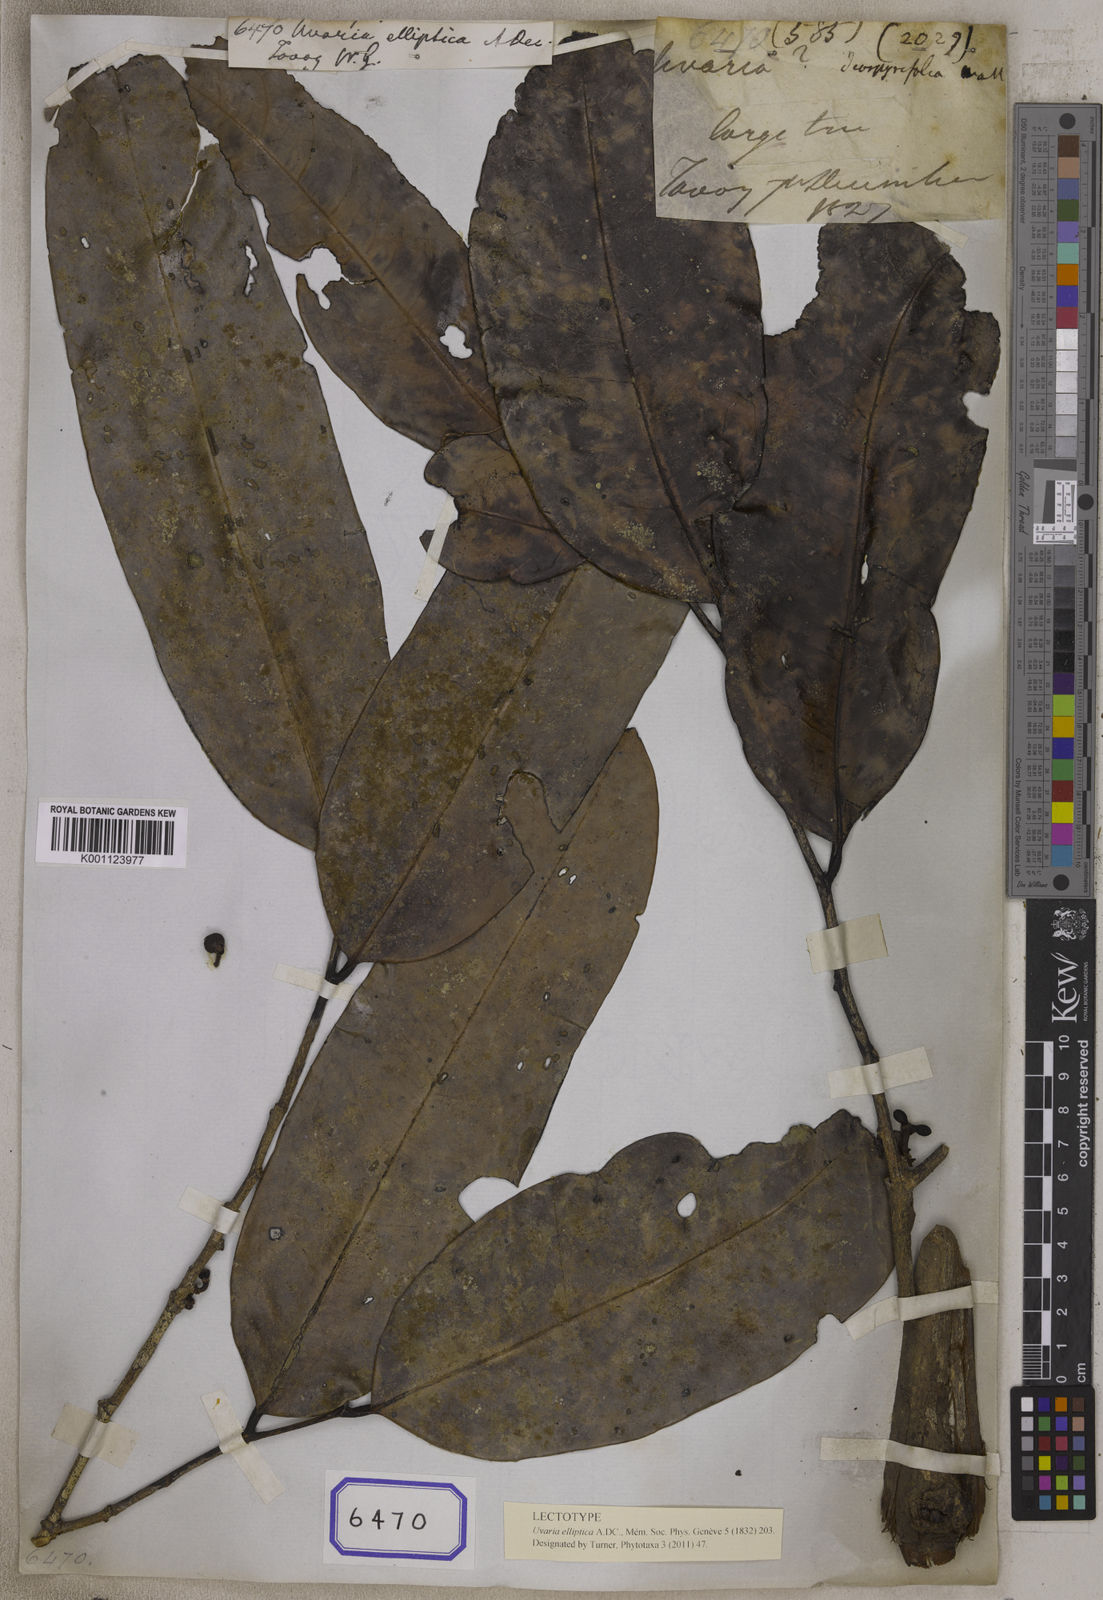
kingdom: Plantae
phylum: Tracheophyta
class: Magnoliopsida
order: Magnoliales
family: Annonaceae
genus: Sageraea
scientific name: Sageraea elliptica
